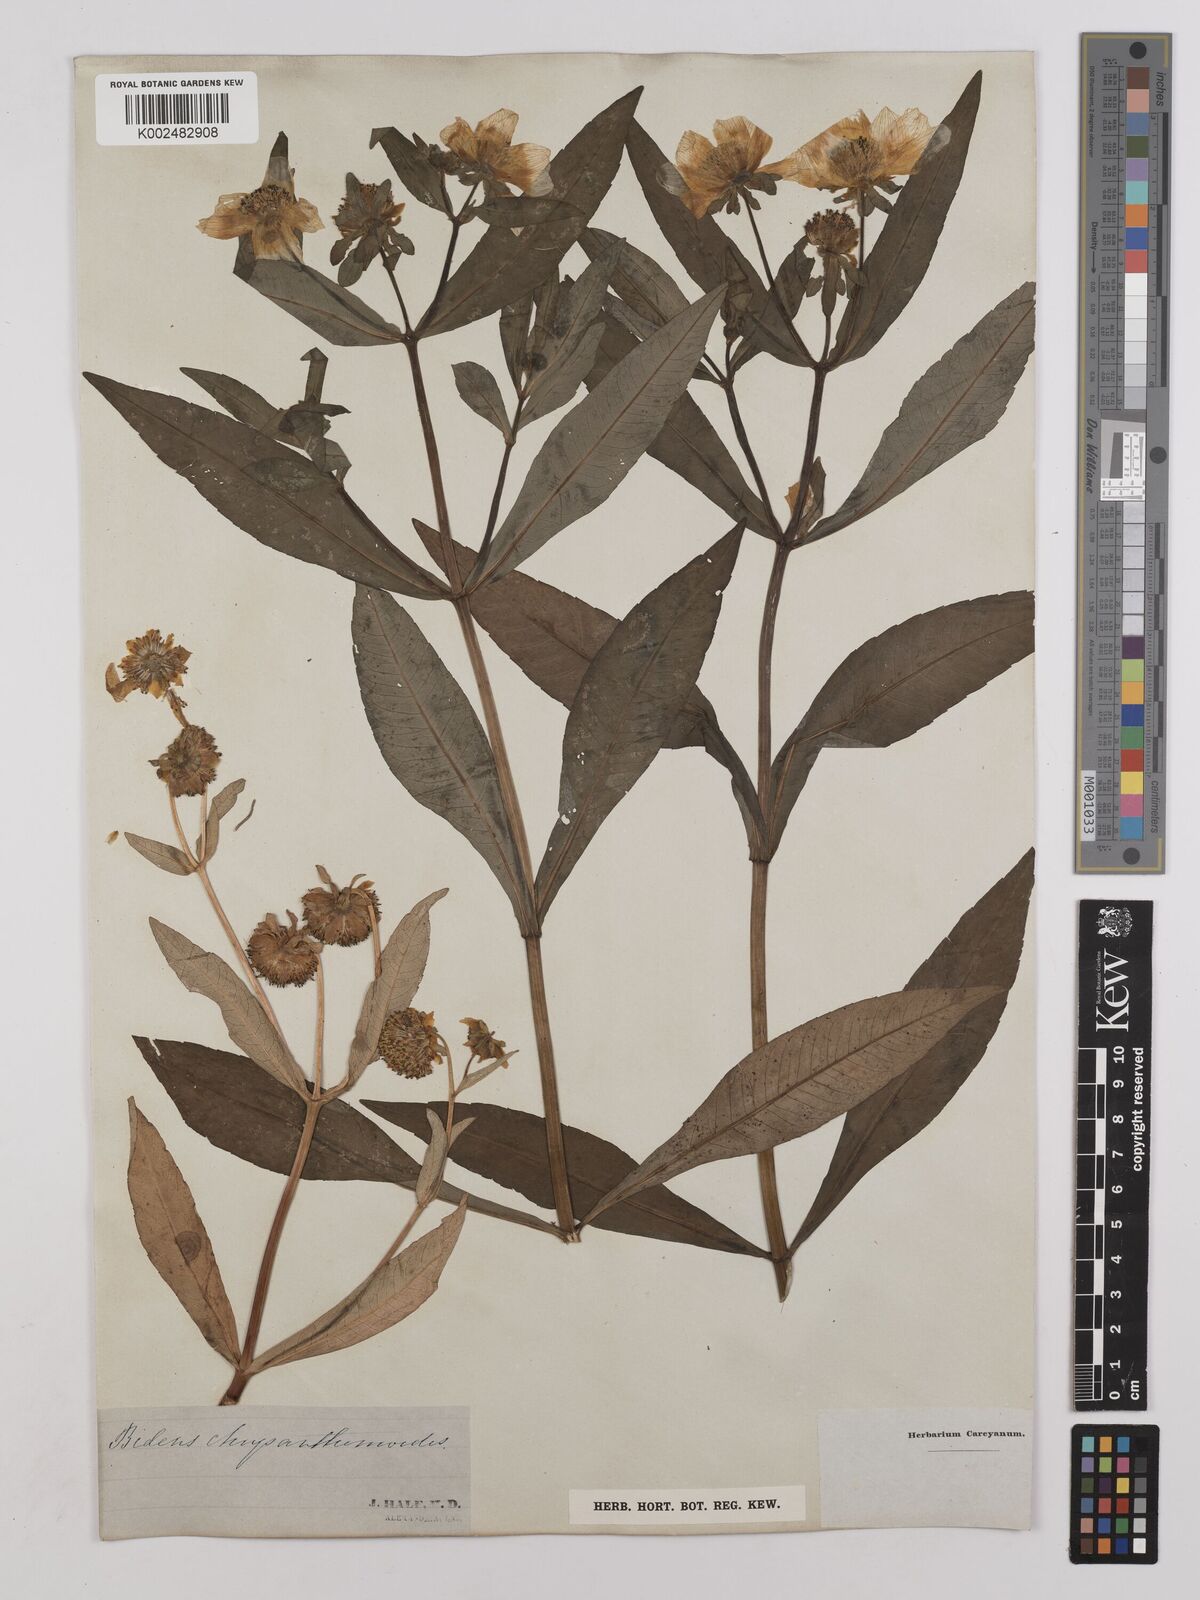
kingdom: Plantae
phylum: Tracheophyta
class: Magnoliopsida
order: Asterales
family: Asteraceae
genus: Bidens
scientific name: Bidens
